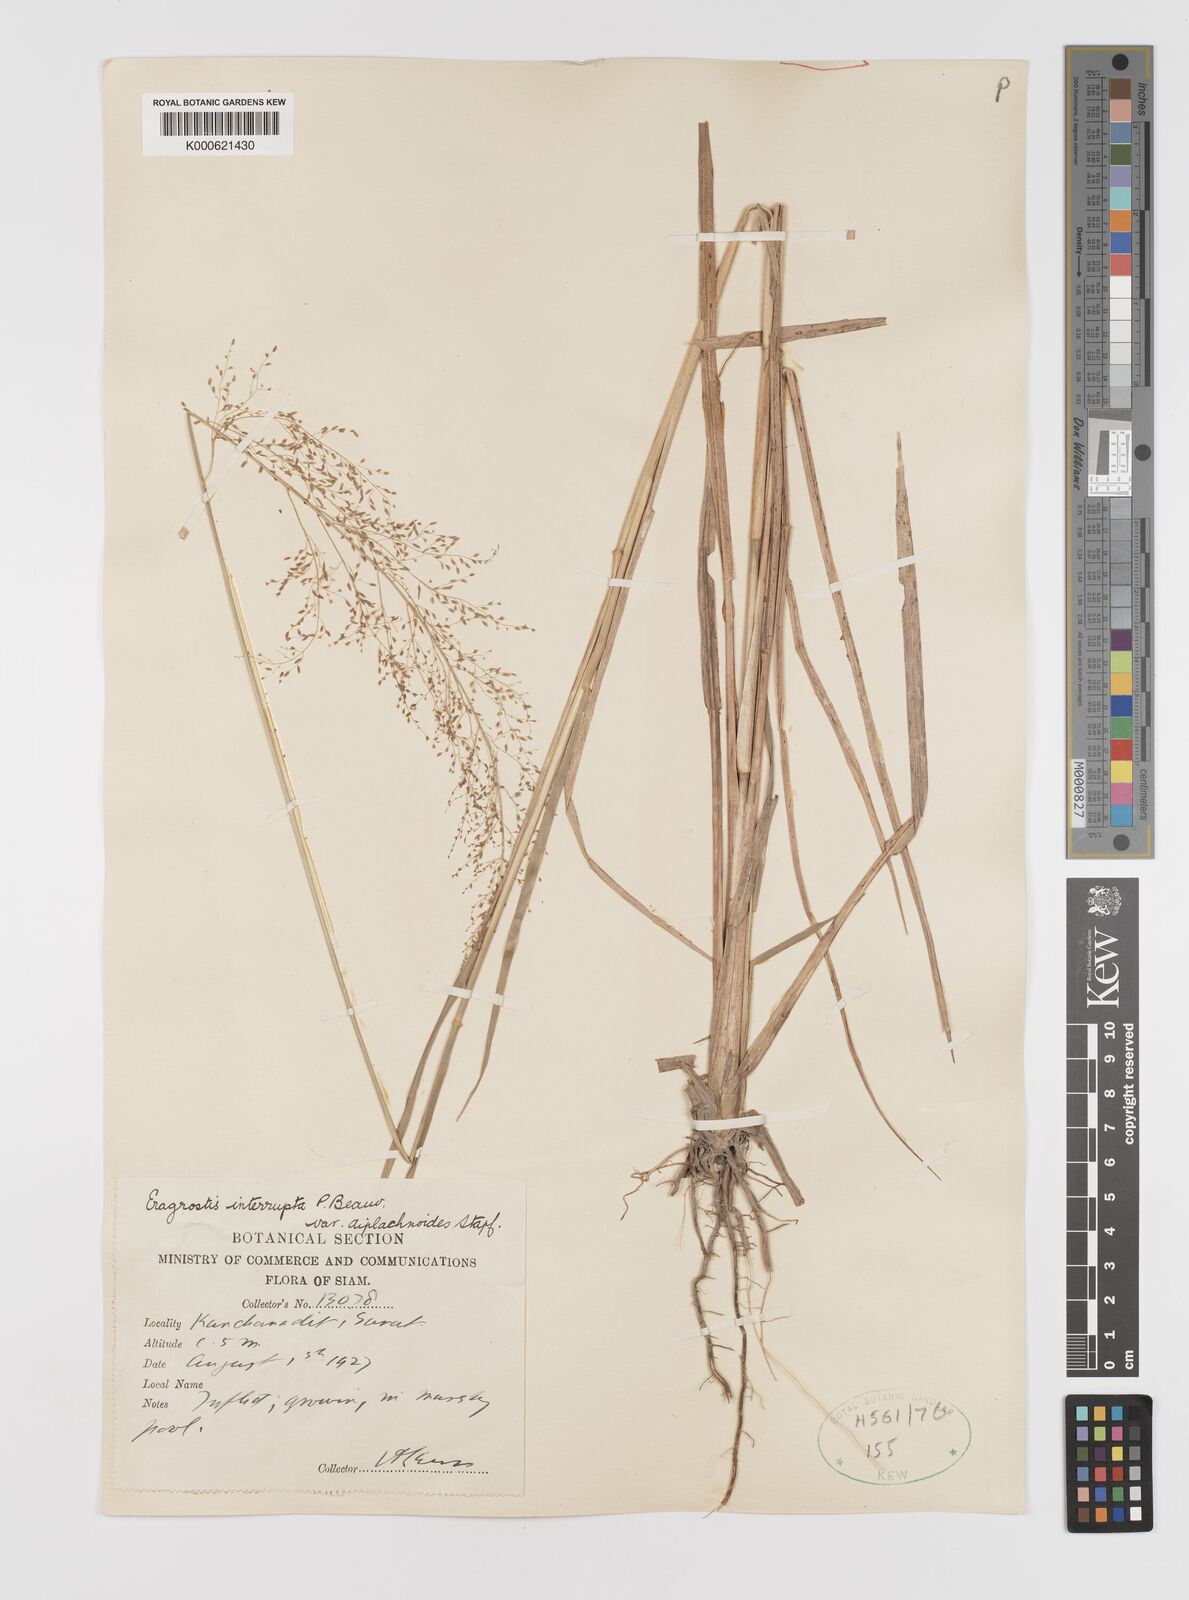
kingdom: Plantae
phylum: Tracheophyta
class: Liliopsida
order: Poales
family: Poaceae
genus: Eragrostis
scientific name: Eragrostis japonica
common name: Pond lovegrass
